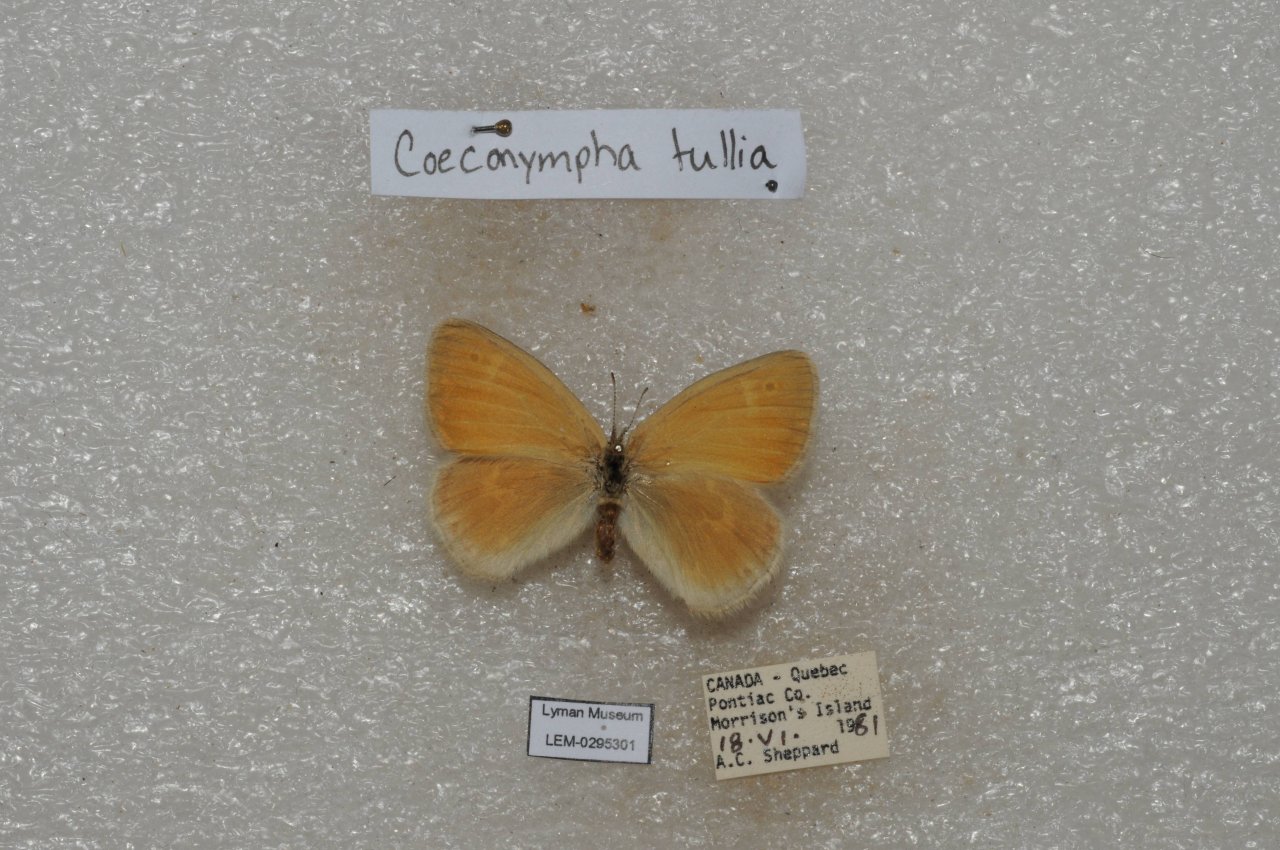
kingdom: Animalia
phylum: Arthropoda
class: Insecta
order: Lepidoptera
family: Nymphalidae
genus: Coenonympha
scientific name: Coenonympha tullia
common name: Large Heath
